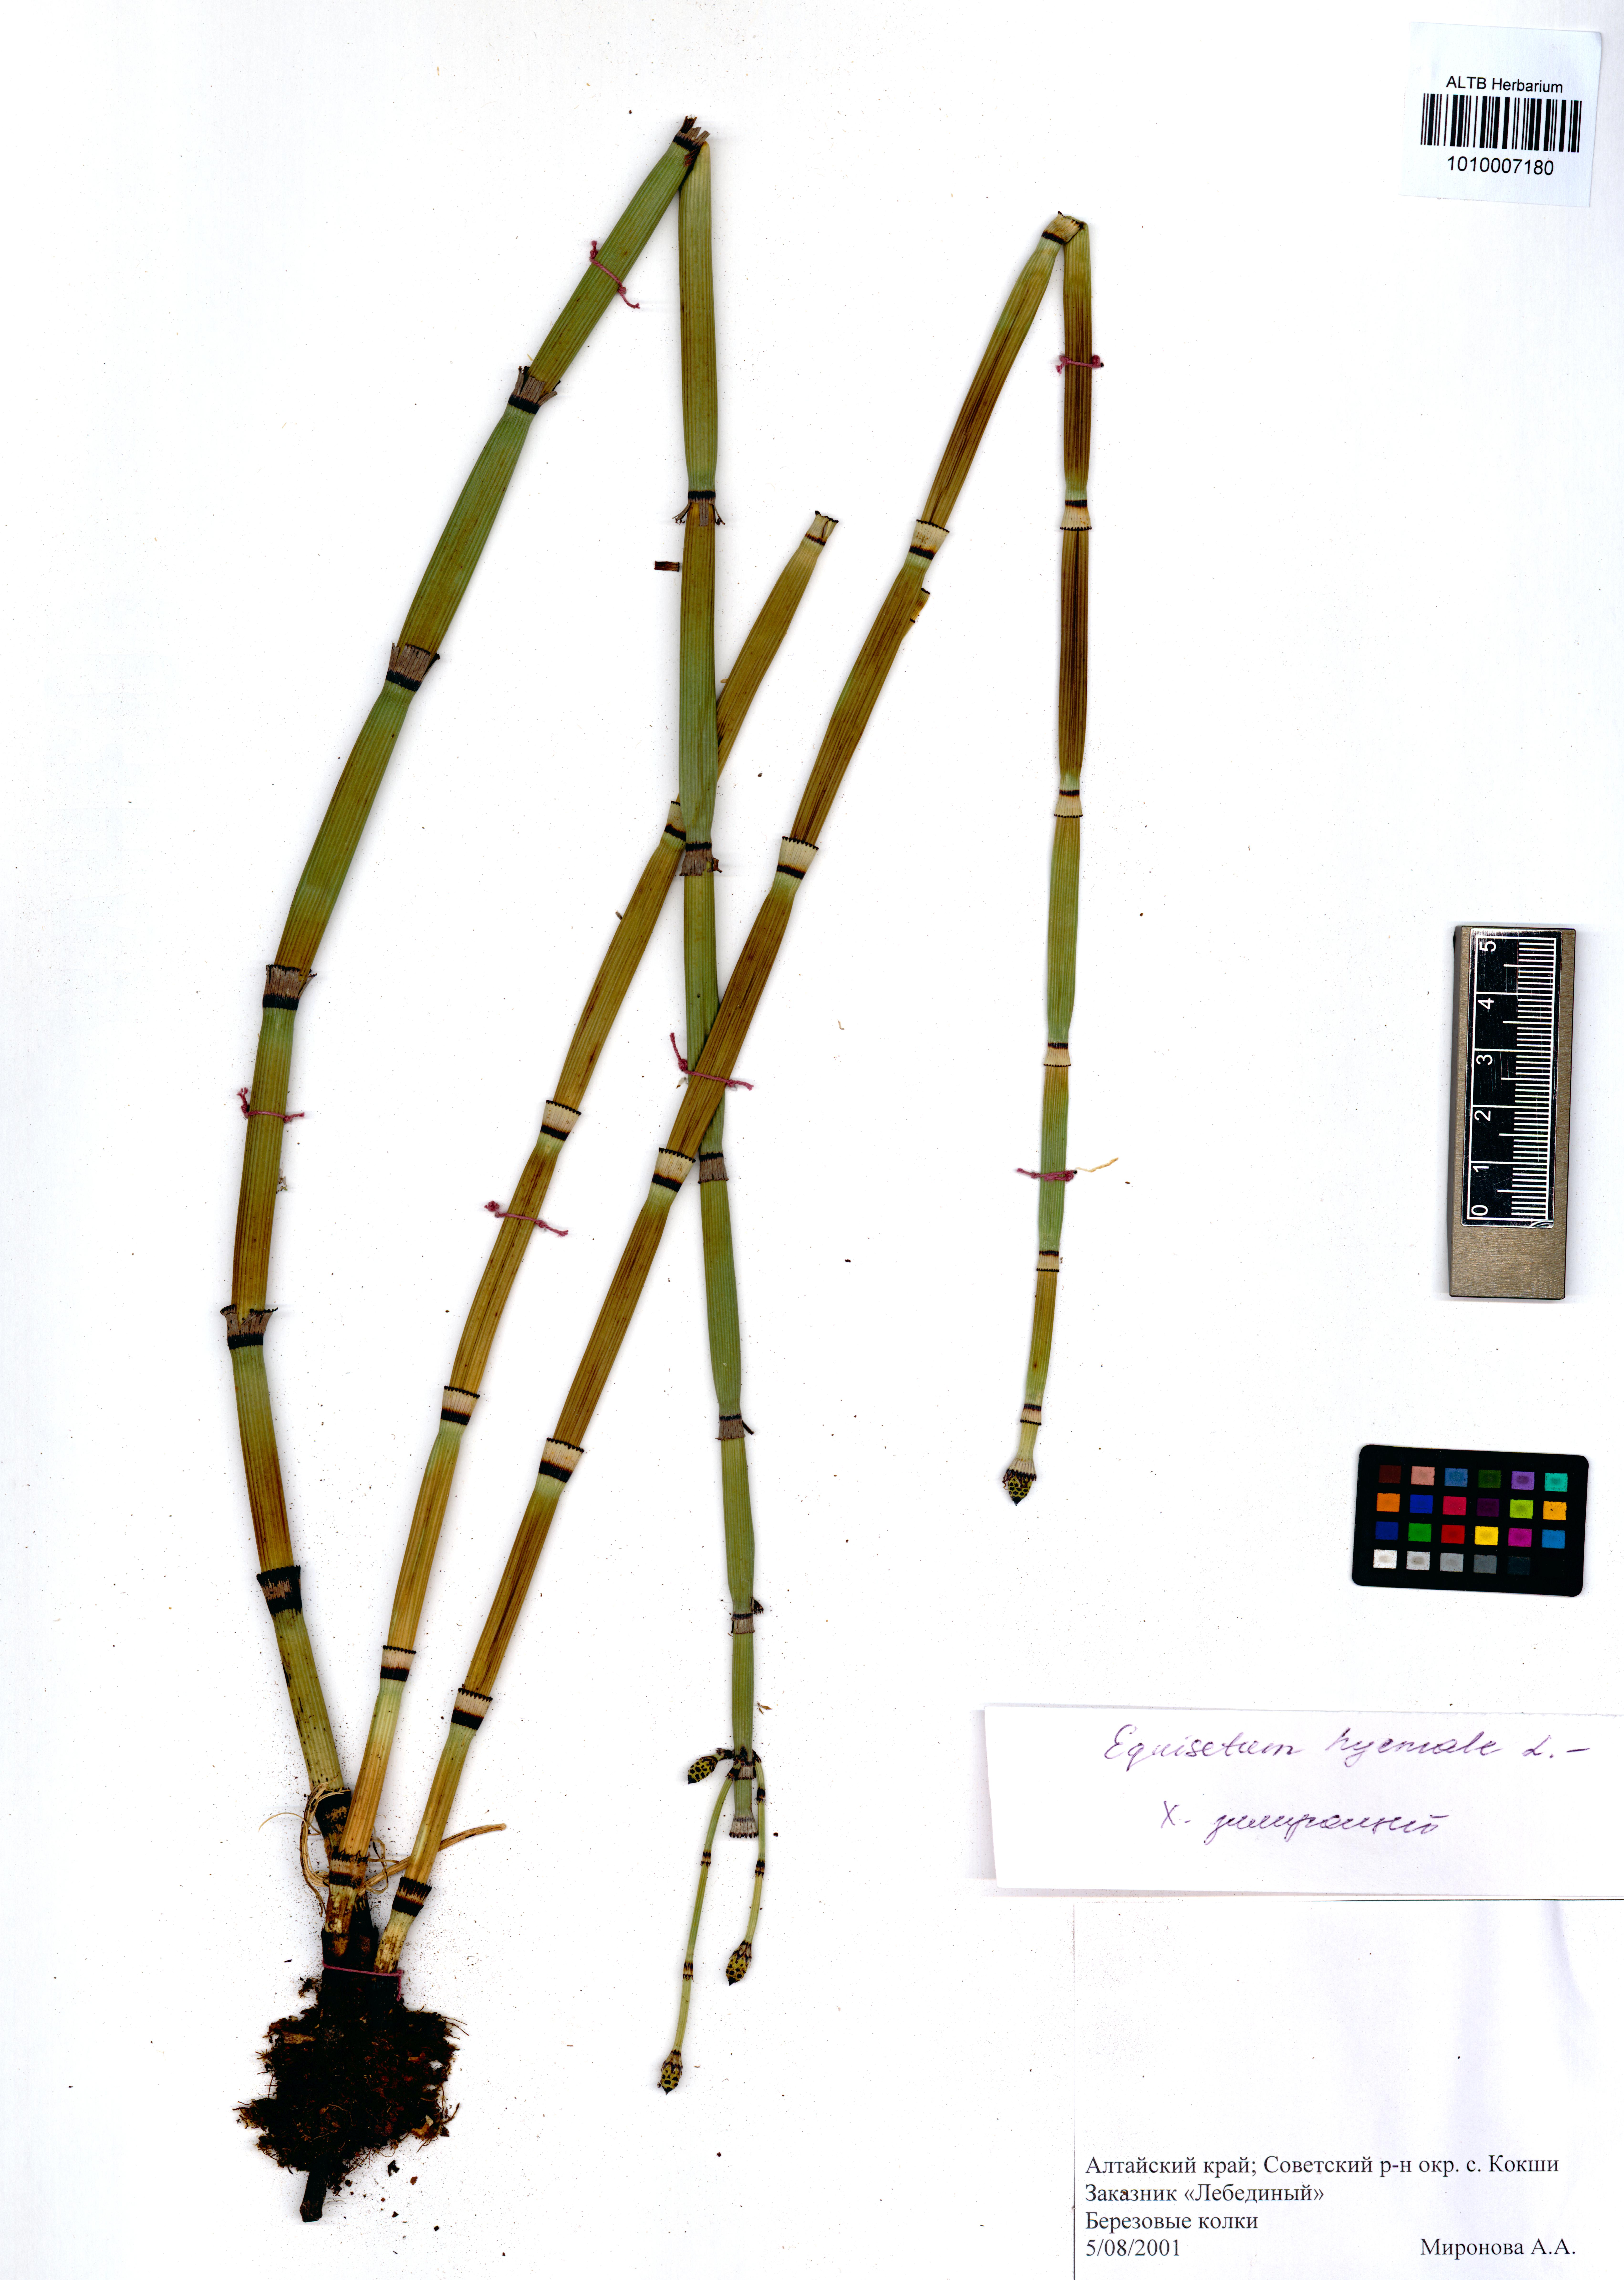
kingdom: Plantae
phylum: Tracheophyta
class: Polypodiopsida
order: Equisetales
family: Equisetaceae
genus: Equisetum
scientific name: Equisetum hyemale
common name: Rough horsetail
